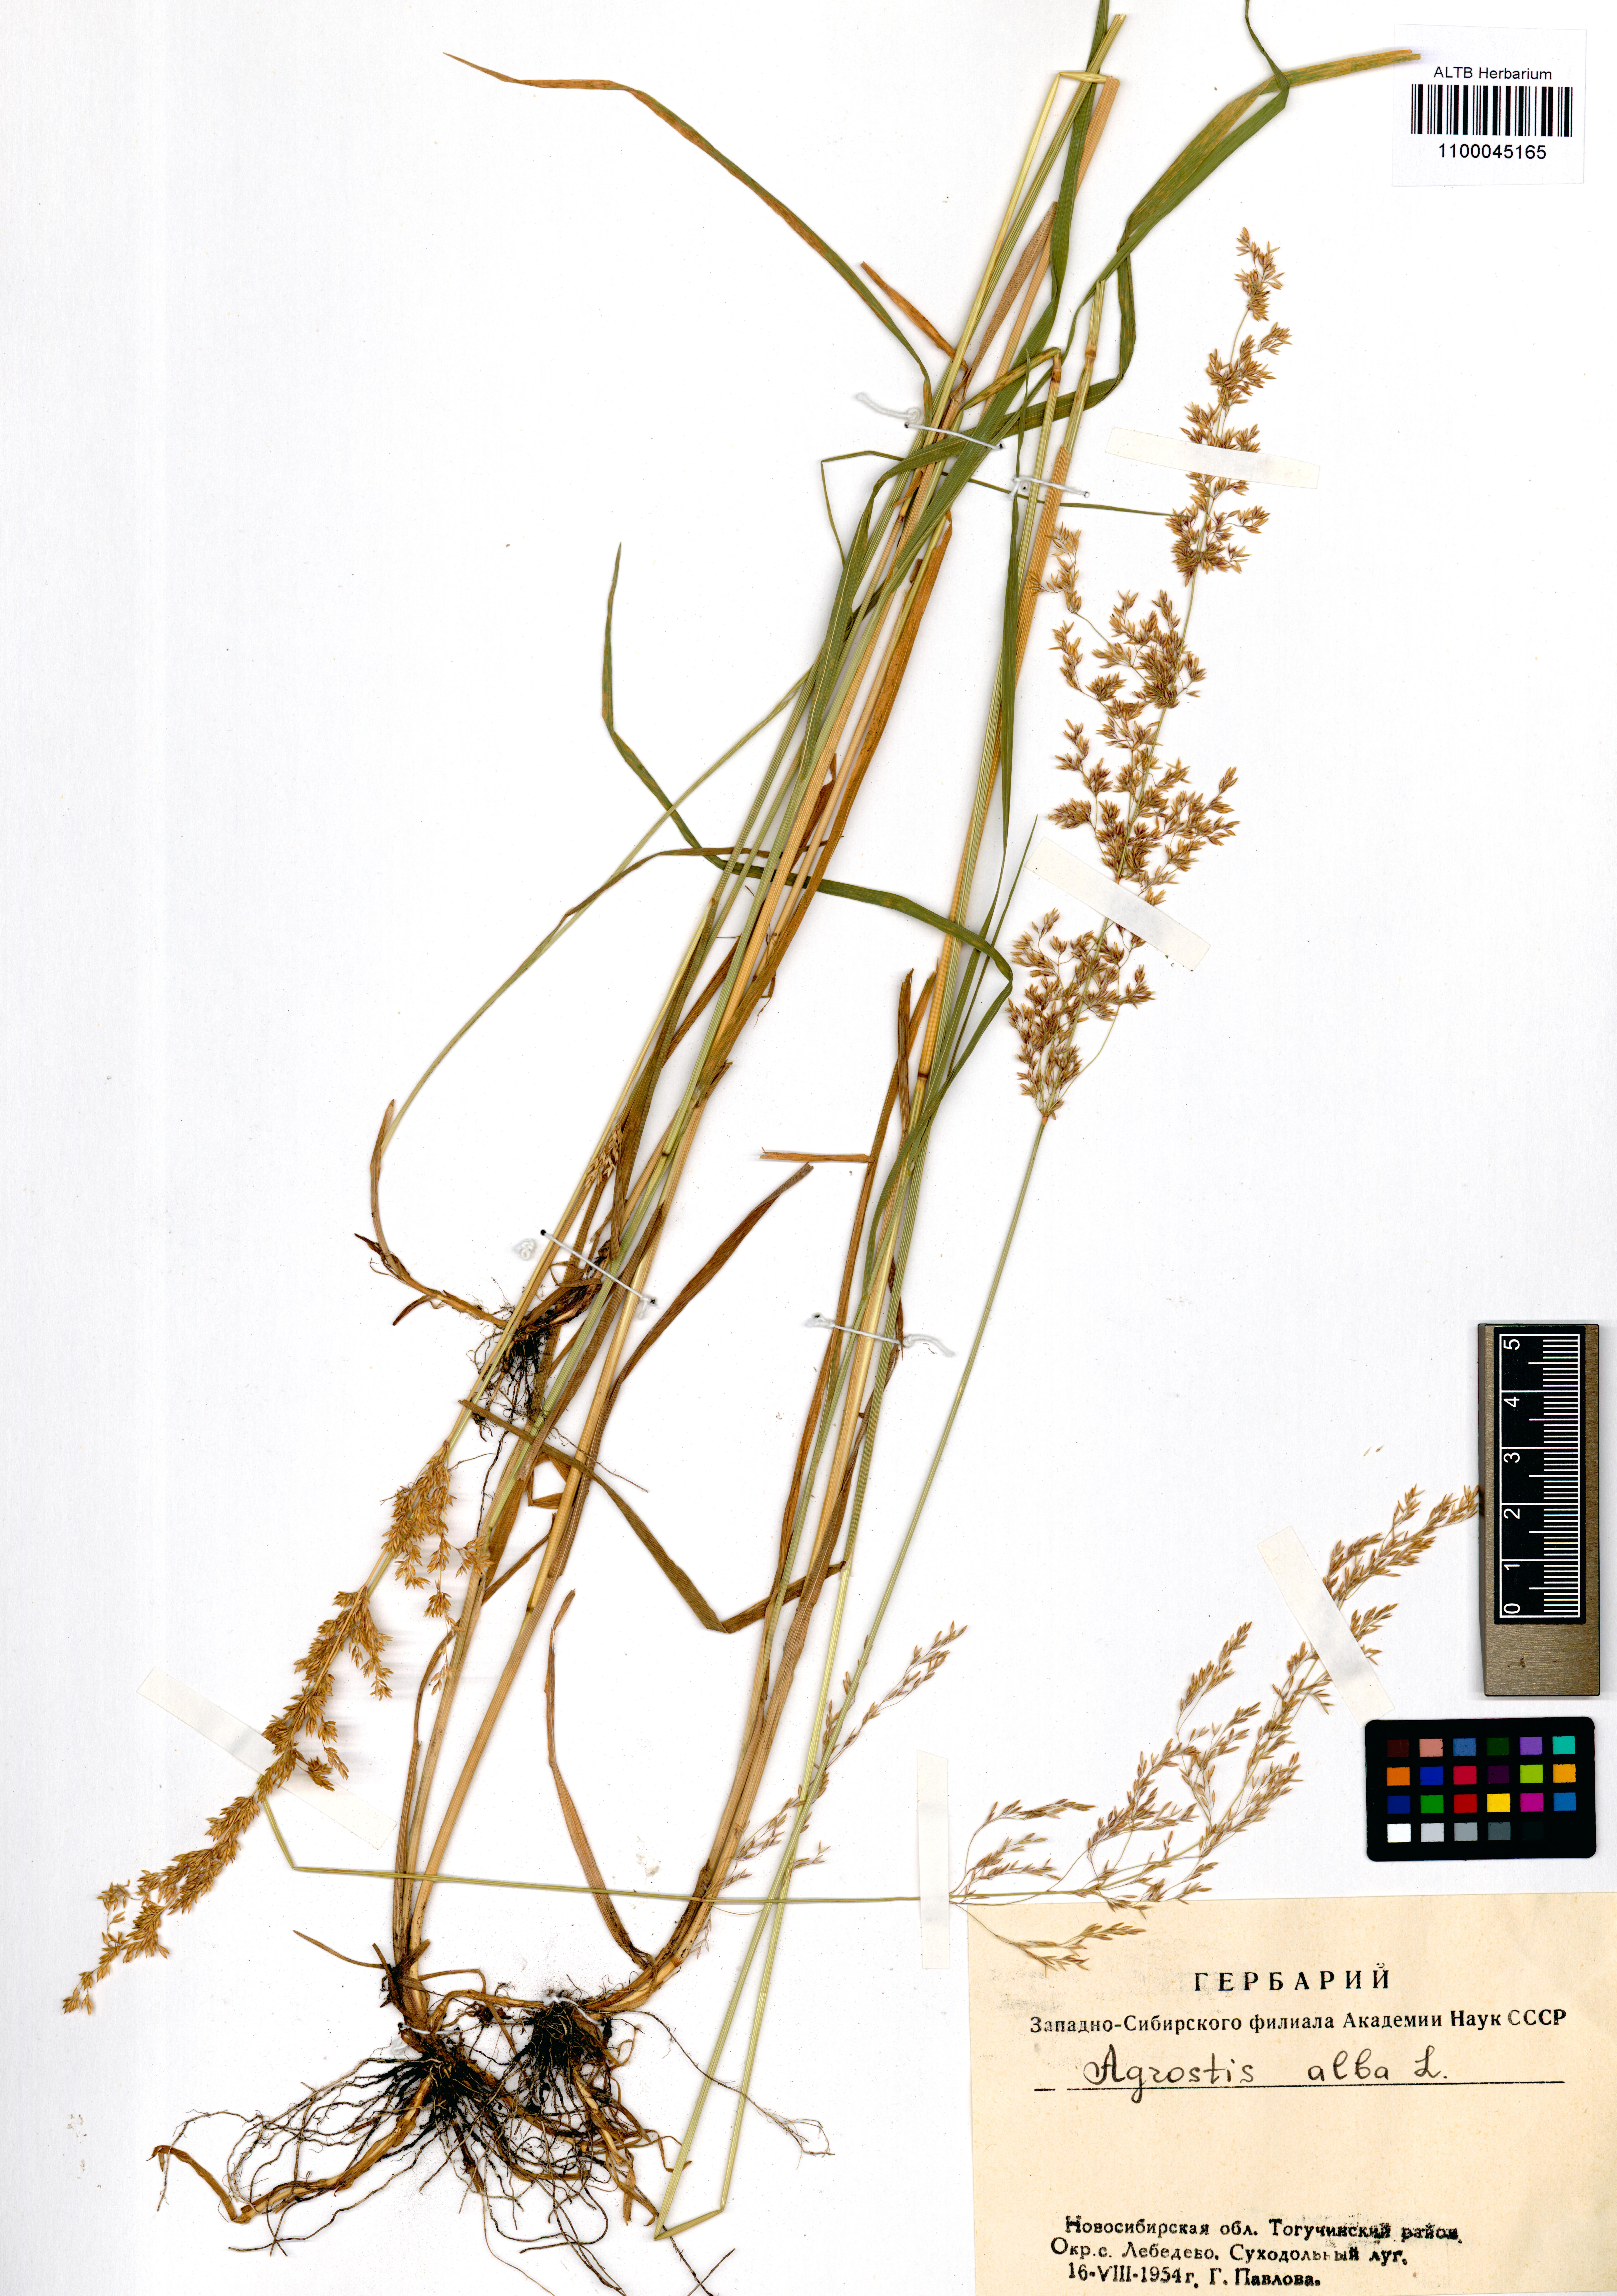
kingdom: Plantae
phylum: Tracheophyta
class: Liliopsida
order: Poales
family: Poaceae
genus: Agrostis
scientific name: Agrostis gigantea
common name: Black bent
